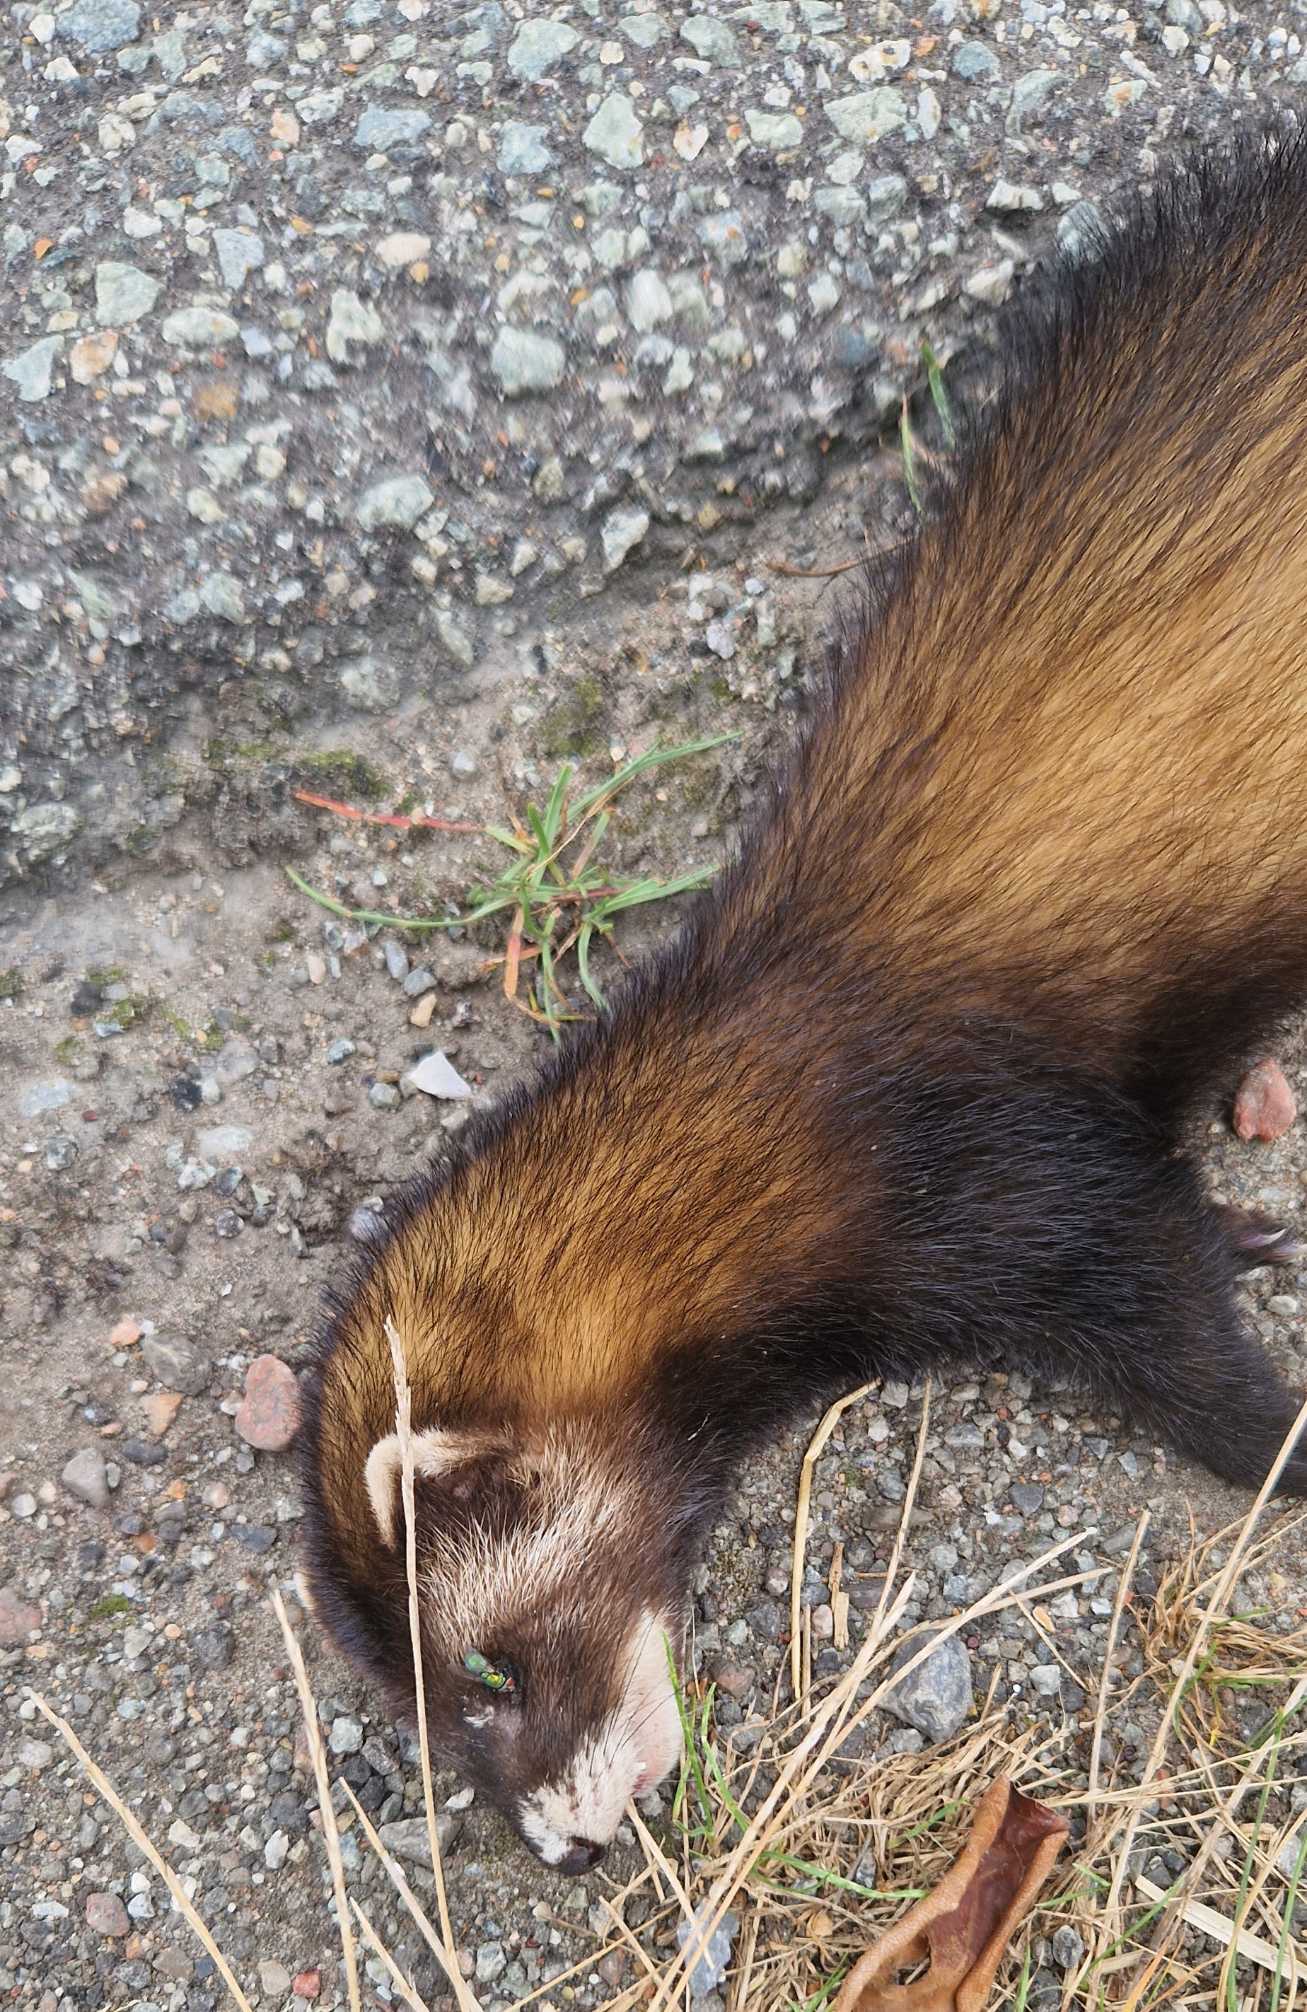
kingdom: Animalia
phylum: Chordata
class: Mammalia
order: Carnivora
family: Mustelidae
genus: Mustela
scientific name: Mustela putorius
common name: Ilder
